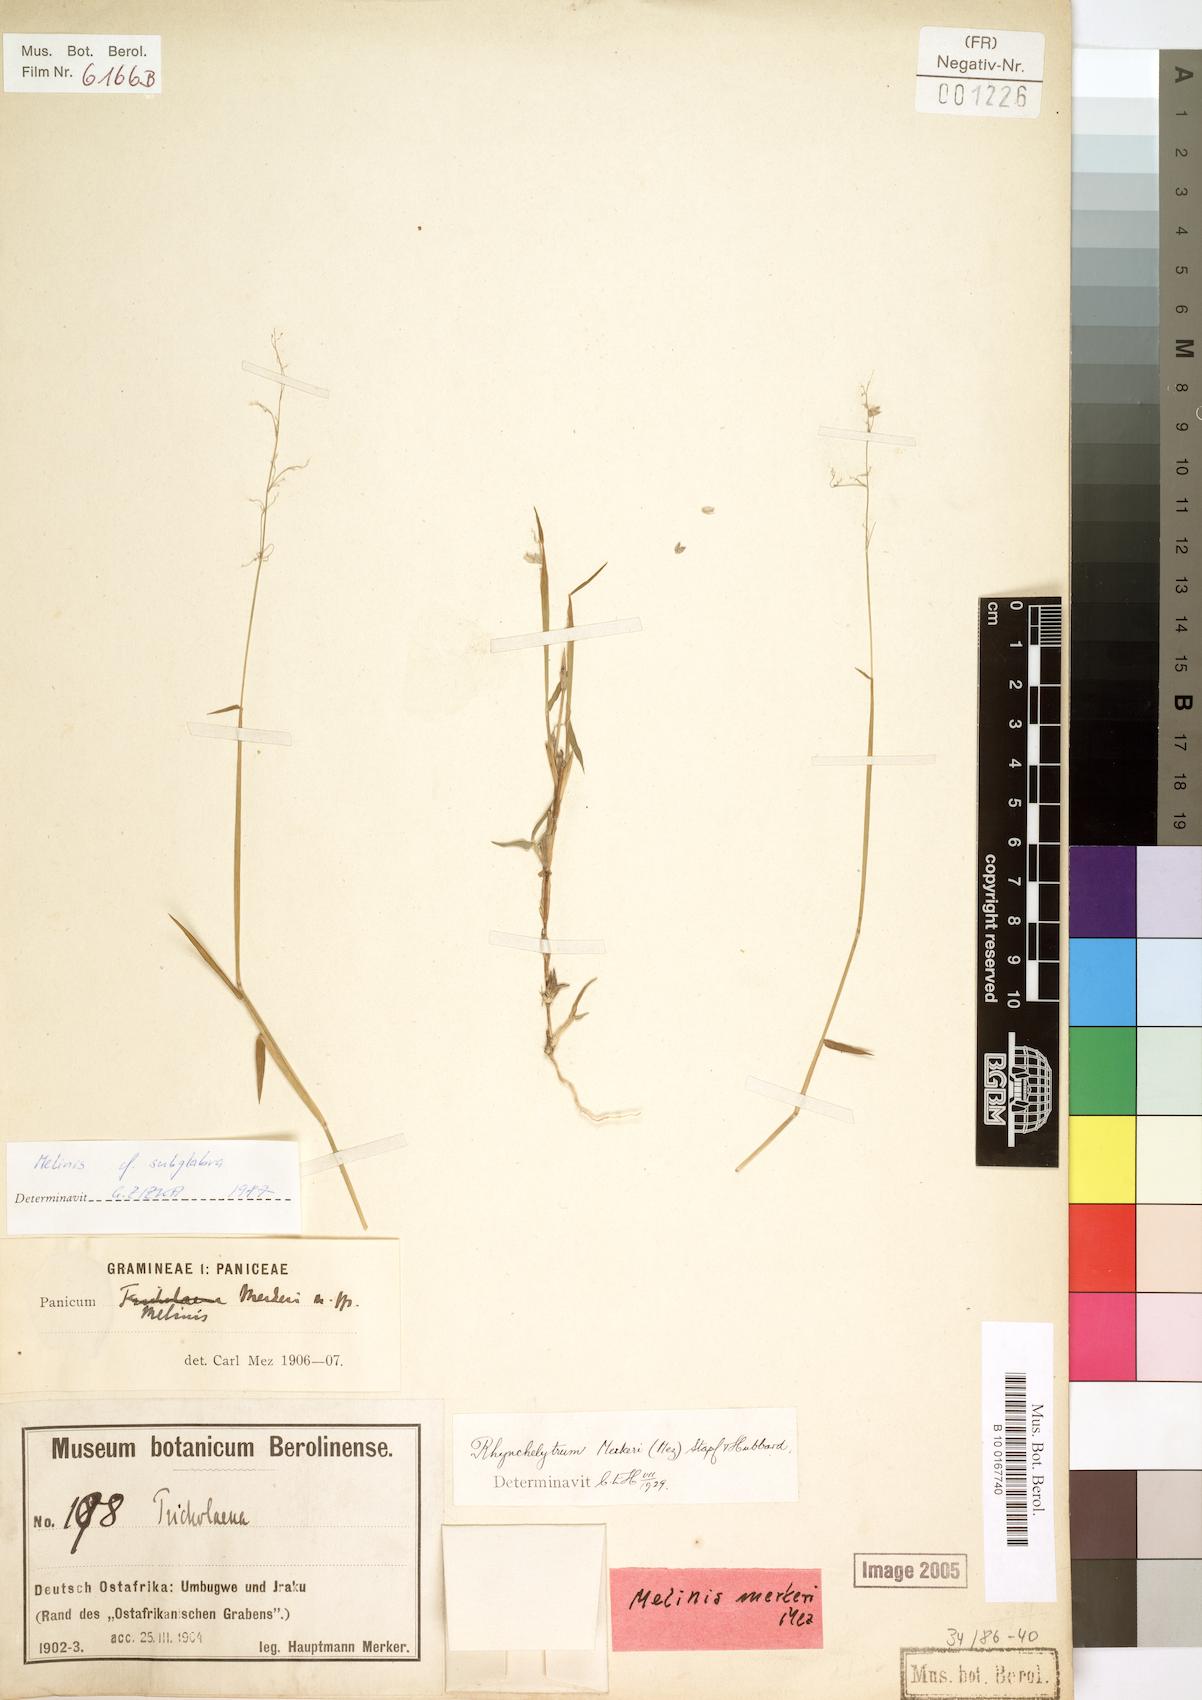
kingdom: Plantae
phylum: Tracheophyta
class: Liliopsida
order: Poales
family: Poaceae
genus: Melinis
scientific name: Melinis subglabra
